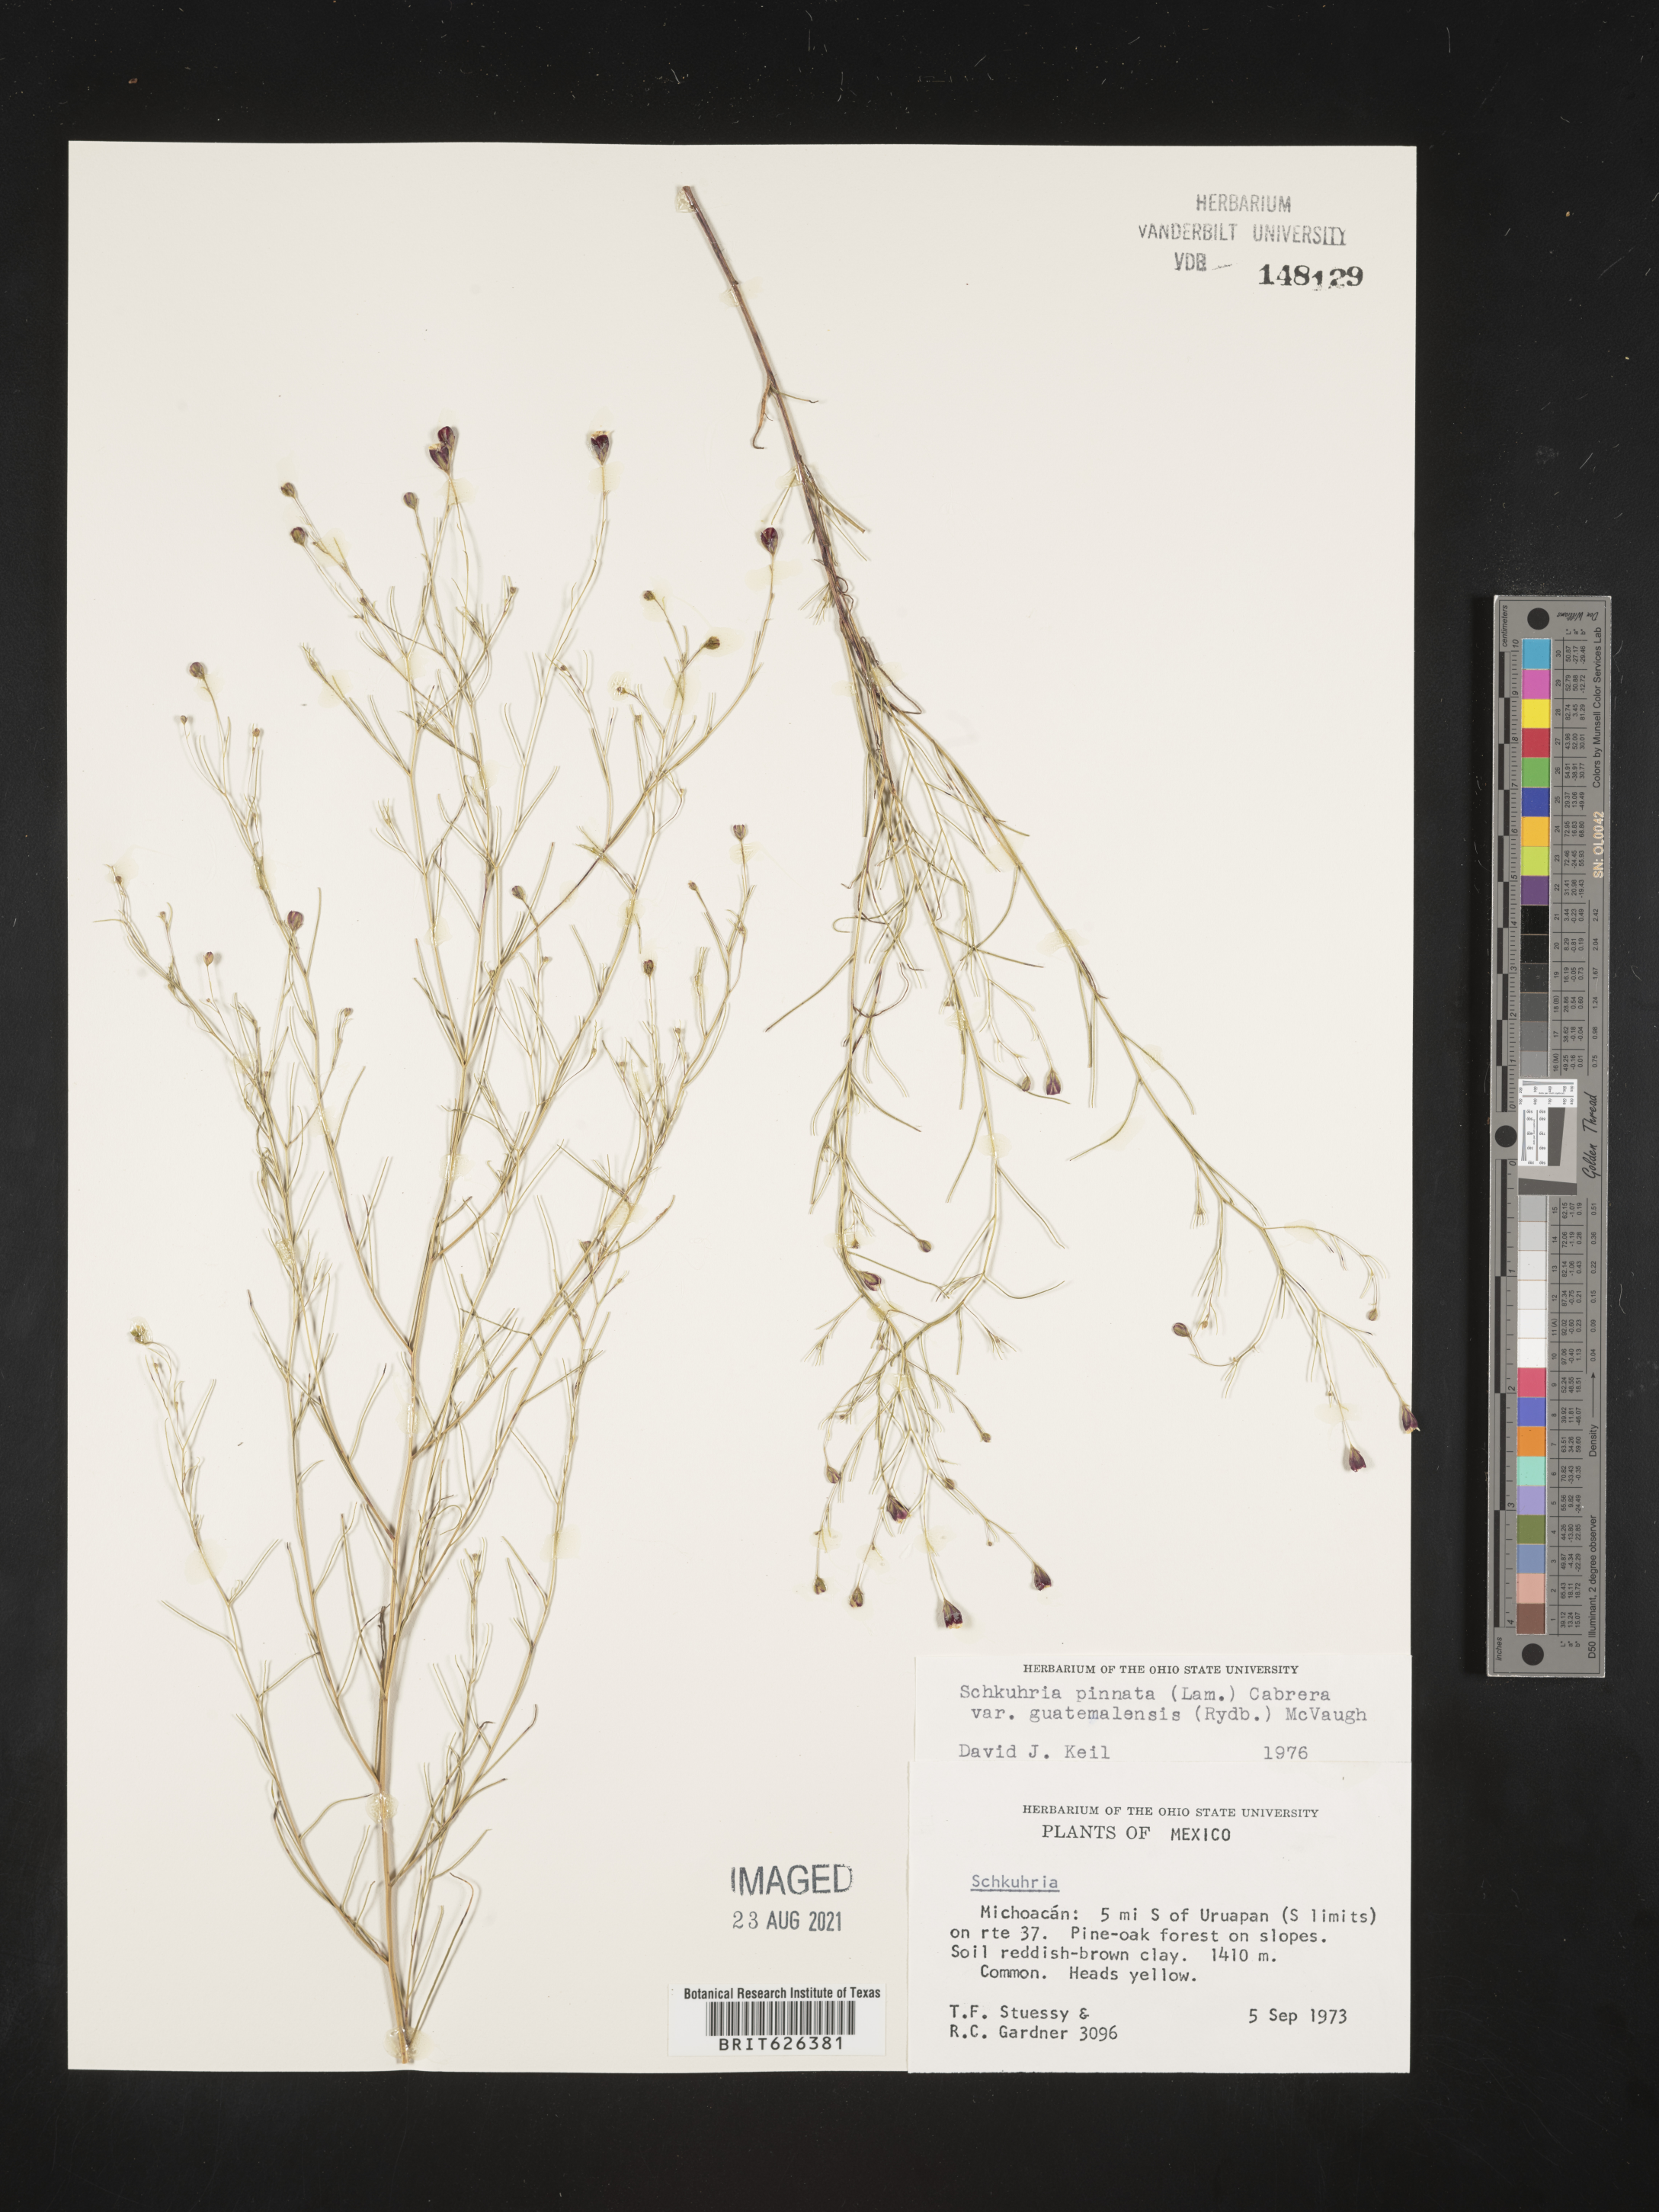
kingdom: Plantae
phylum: Tracheophyta
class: Magnoliopsida
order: Asterales
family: Asteraceae
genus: Schkuhria
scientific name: Schkuhria
